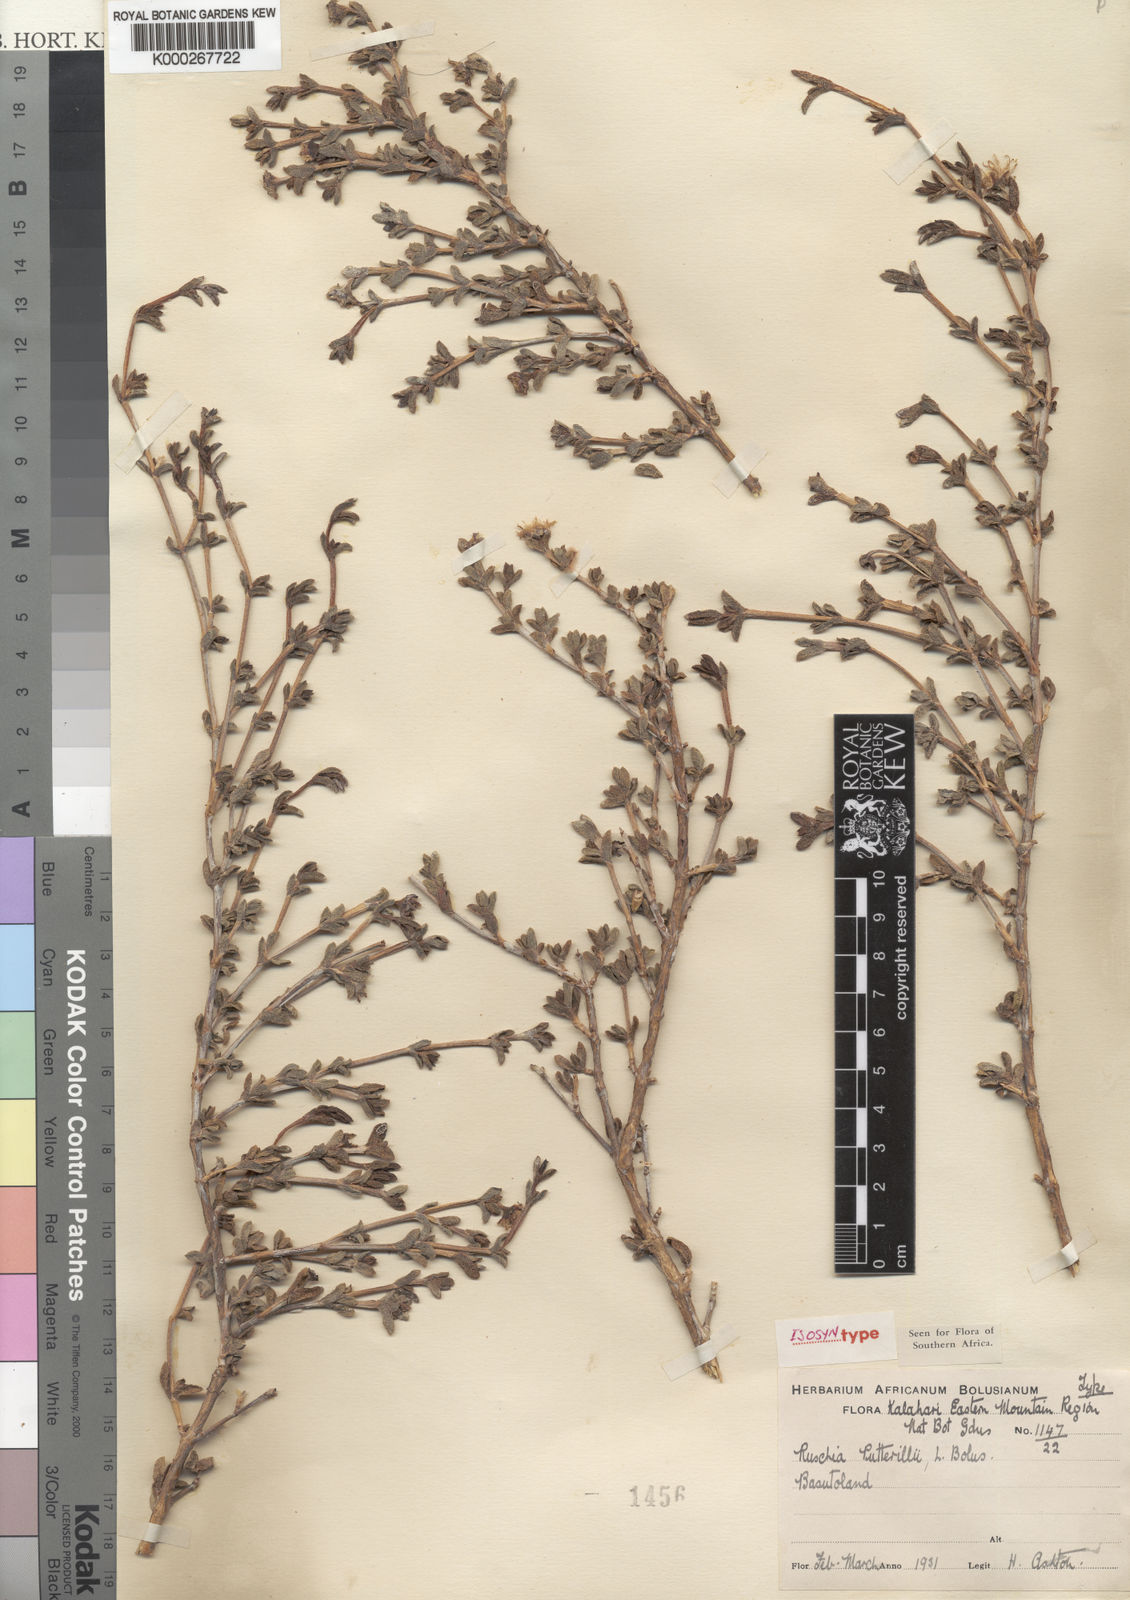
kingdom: Plantae
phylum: Tracheophyta
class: Magnoliopsida
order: Caryophyllales
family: Aizoaceae
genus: Ruschia
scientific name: Ruschia putterillii
